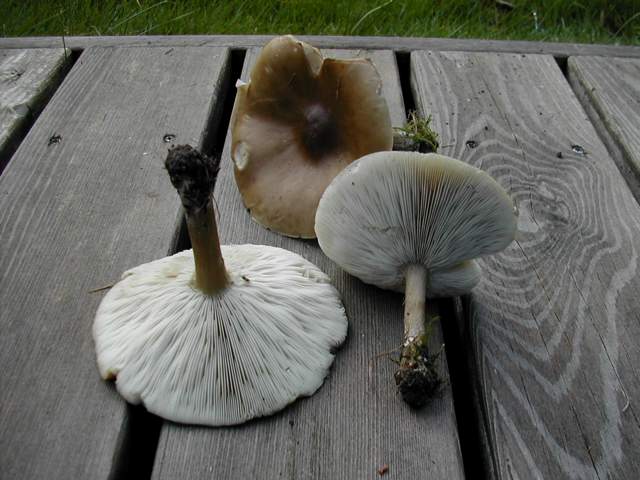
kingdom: Fungi
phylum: Basidiomycota
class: Agaricomycetes
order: Agaricales
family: Tricholomataceae
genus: Melanoleuca
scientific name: Melanoleuca grammopodia
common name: stribestokket munkehat
